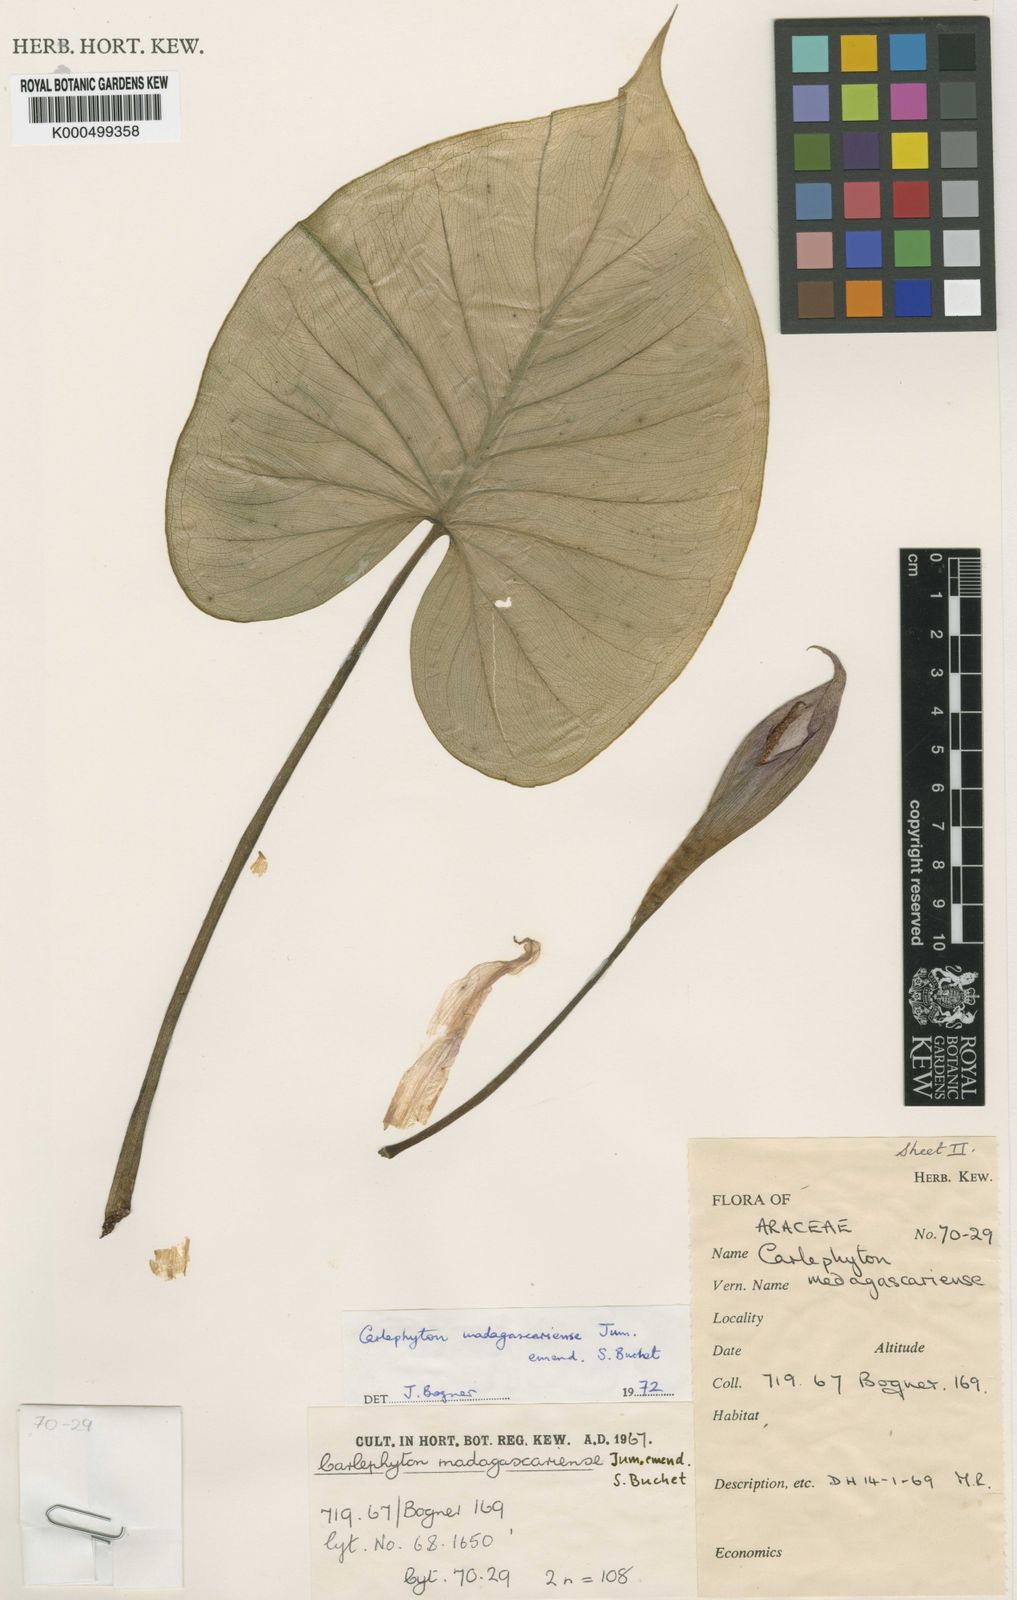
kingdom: Plantae
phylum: Tracheophyta
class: Liliopsida
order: Alismatales
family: Araceae
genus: Carlephyton
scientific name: Carlephyton madagascariense
